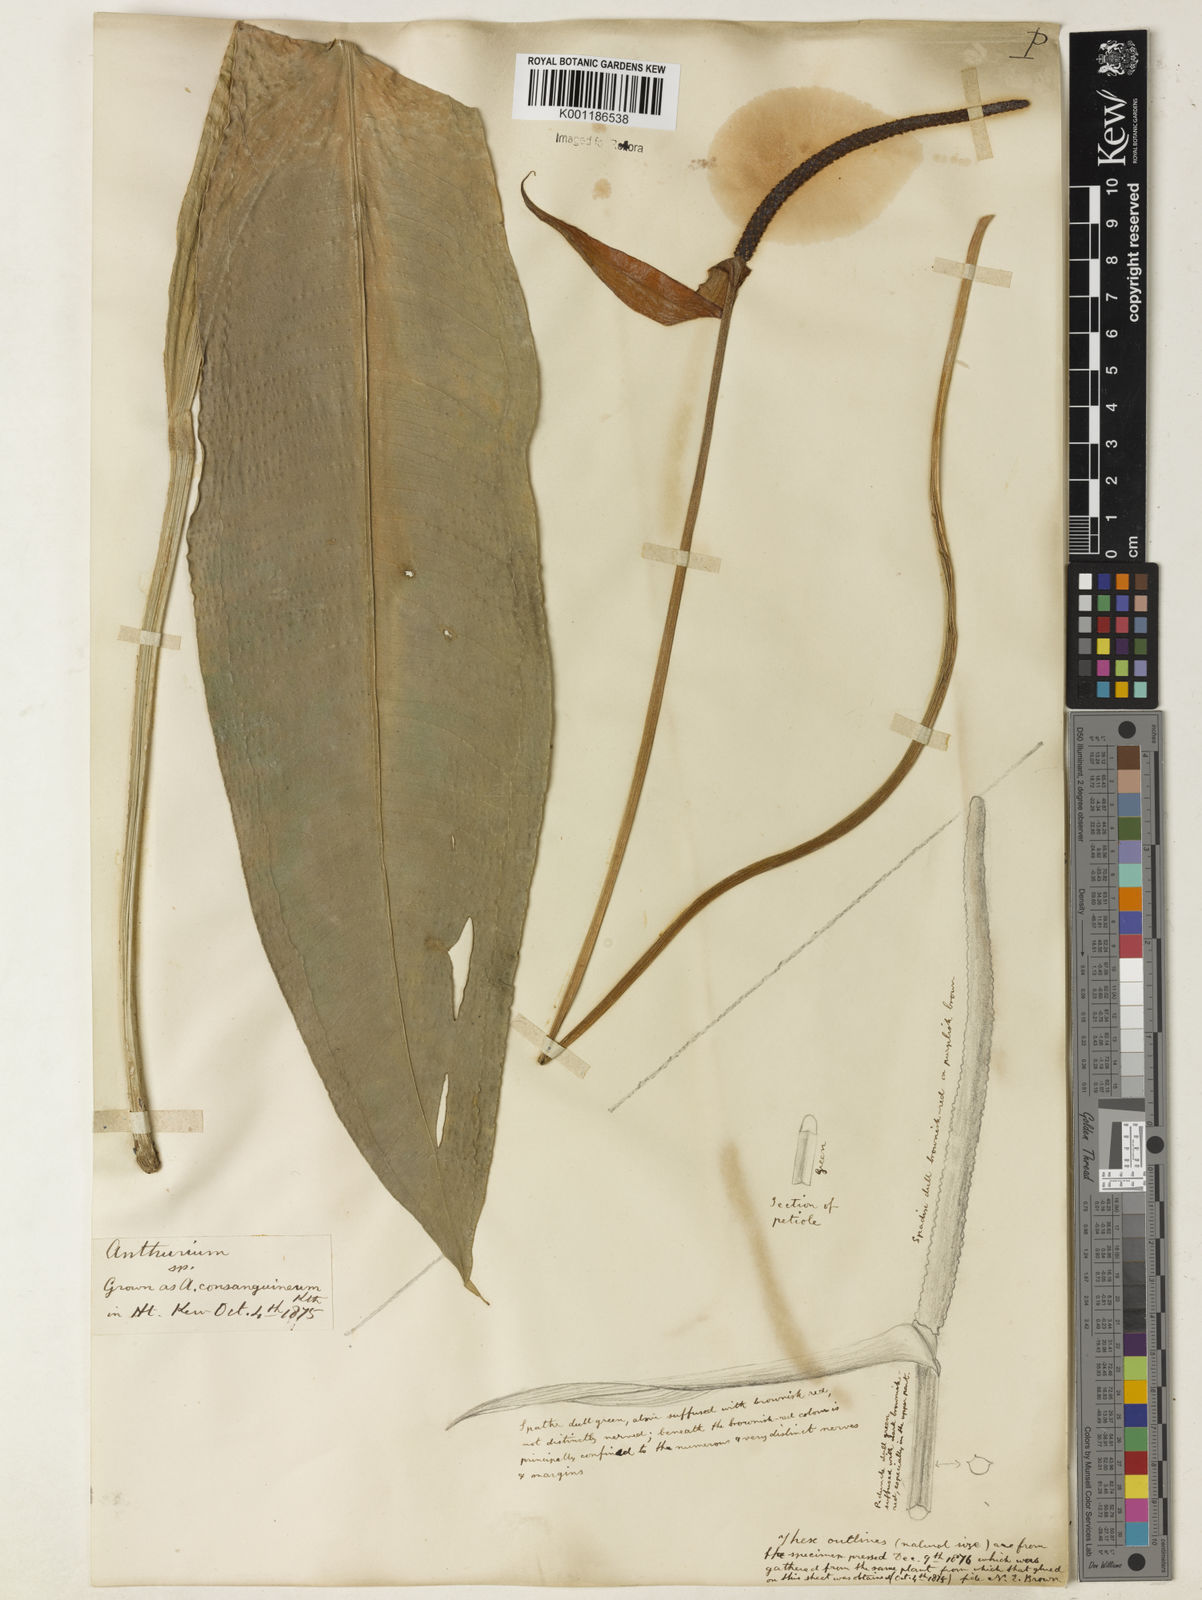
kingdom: Plantae
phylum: Tracheophyta
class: Liliopsida
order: Alismatales
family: Araceae
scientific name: Araceae
